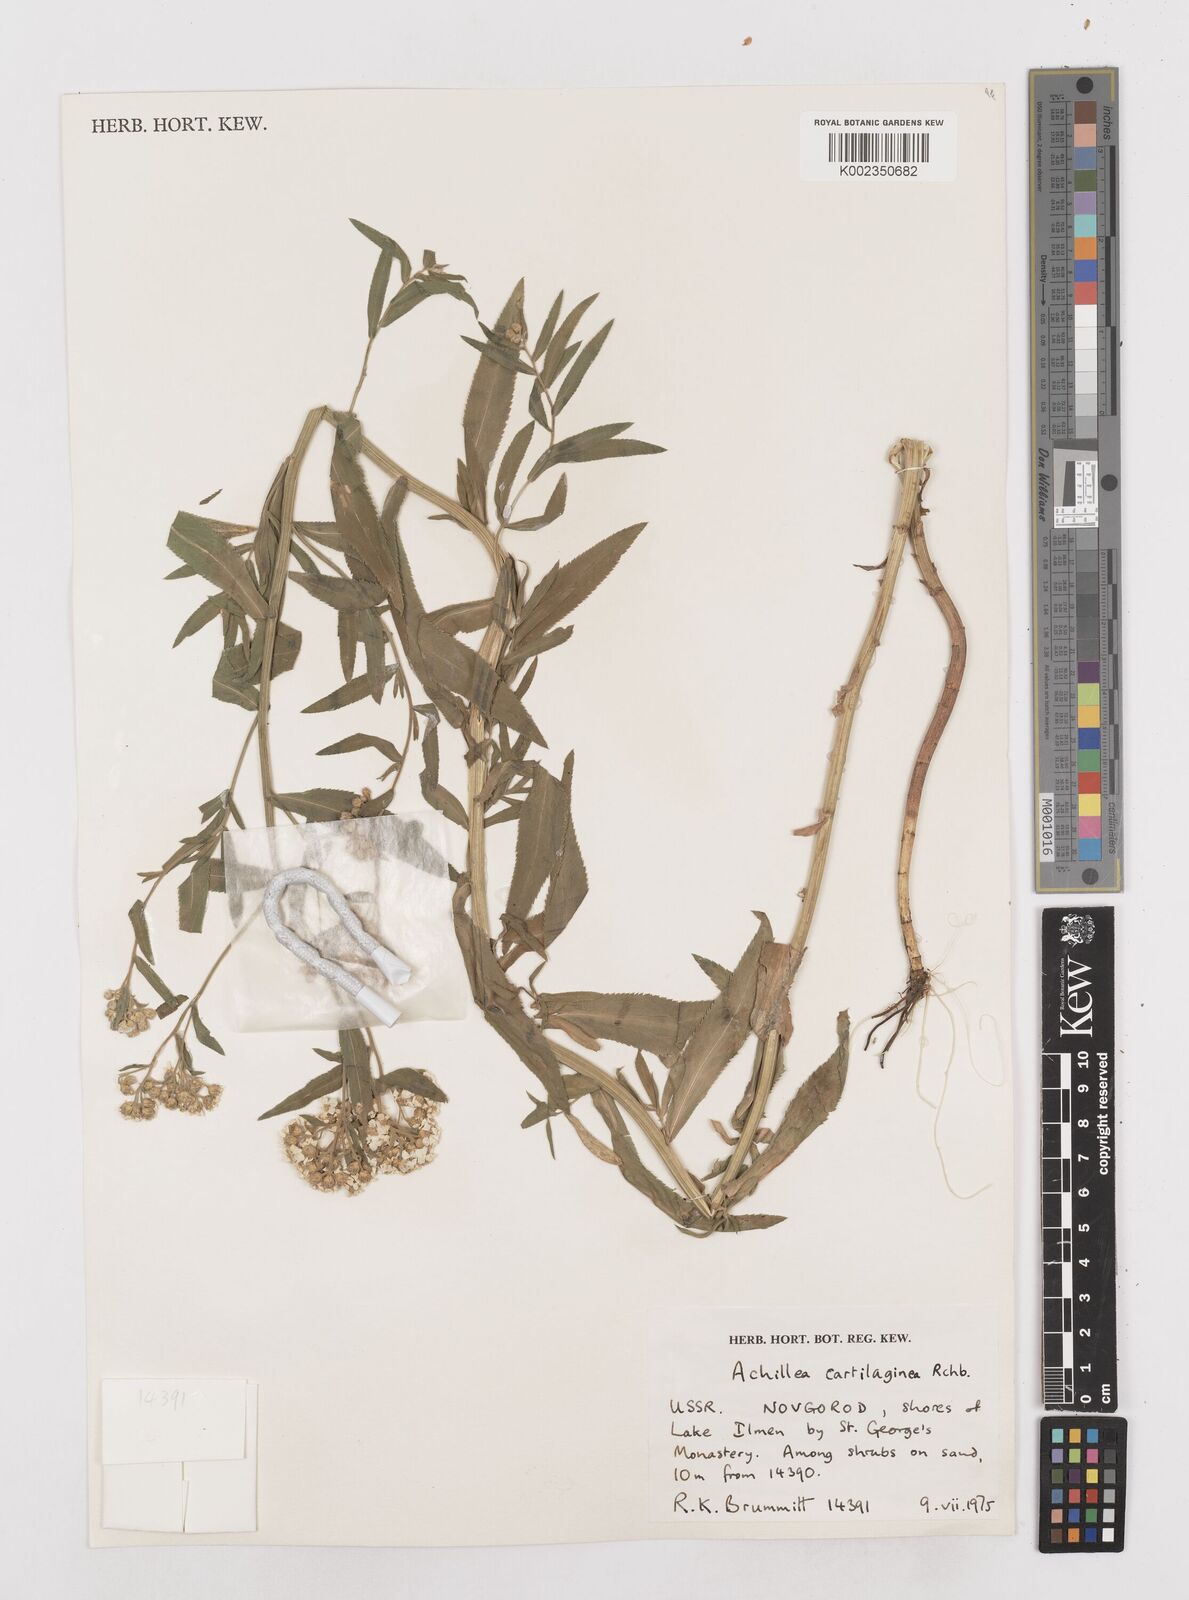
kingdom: Plantae
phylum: Tracheophyta
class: Magnoliopsida
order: Asterales
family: Asteraceae
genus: Achillea
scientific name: Achillea salicifolia
